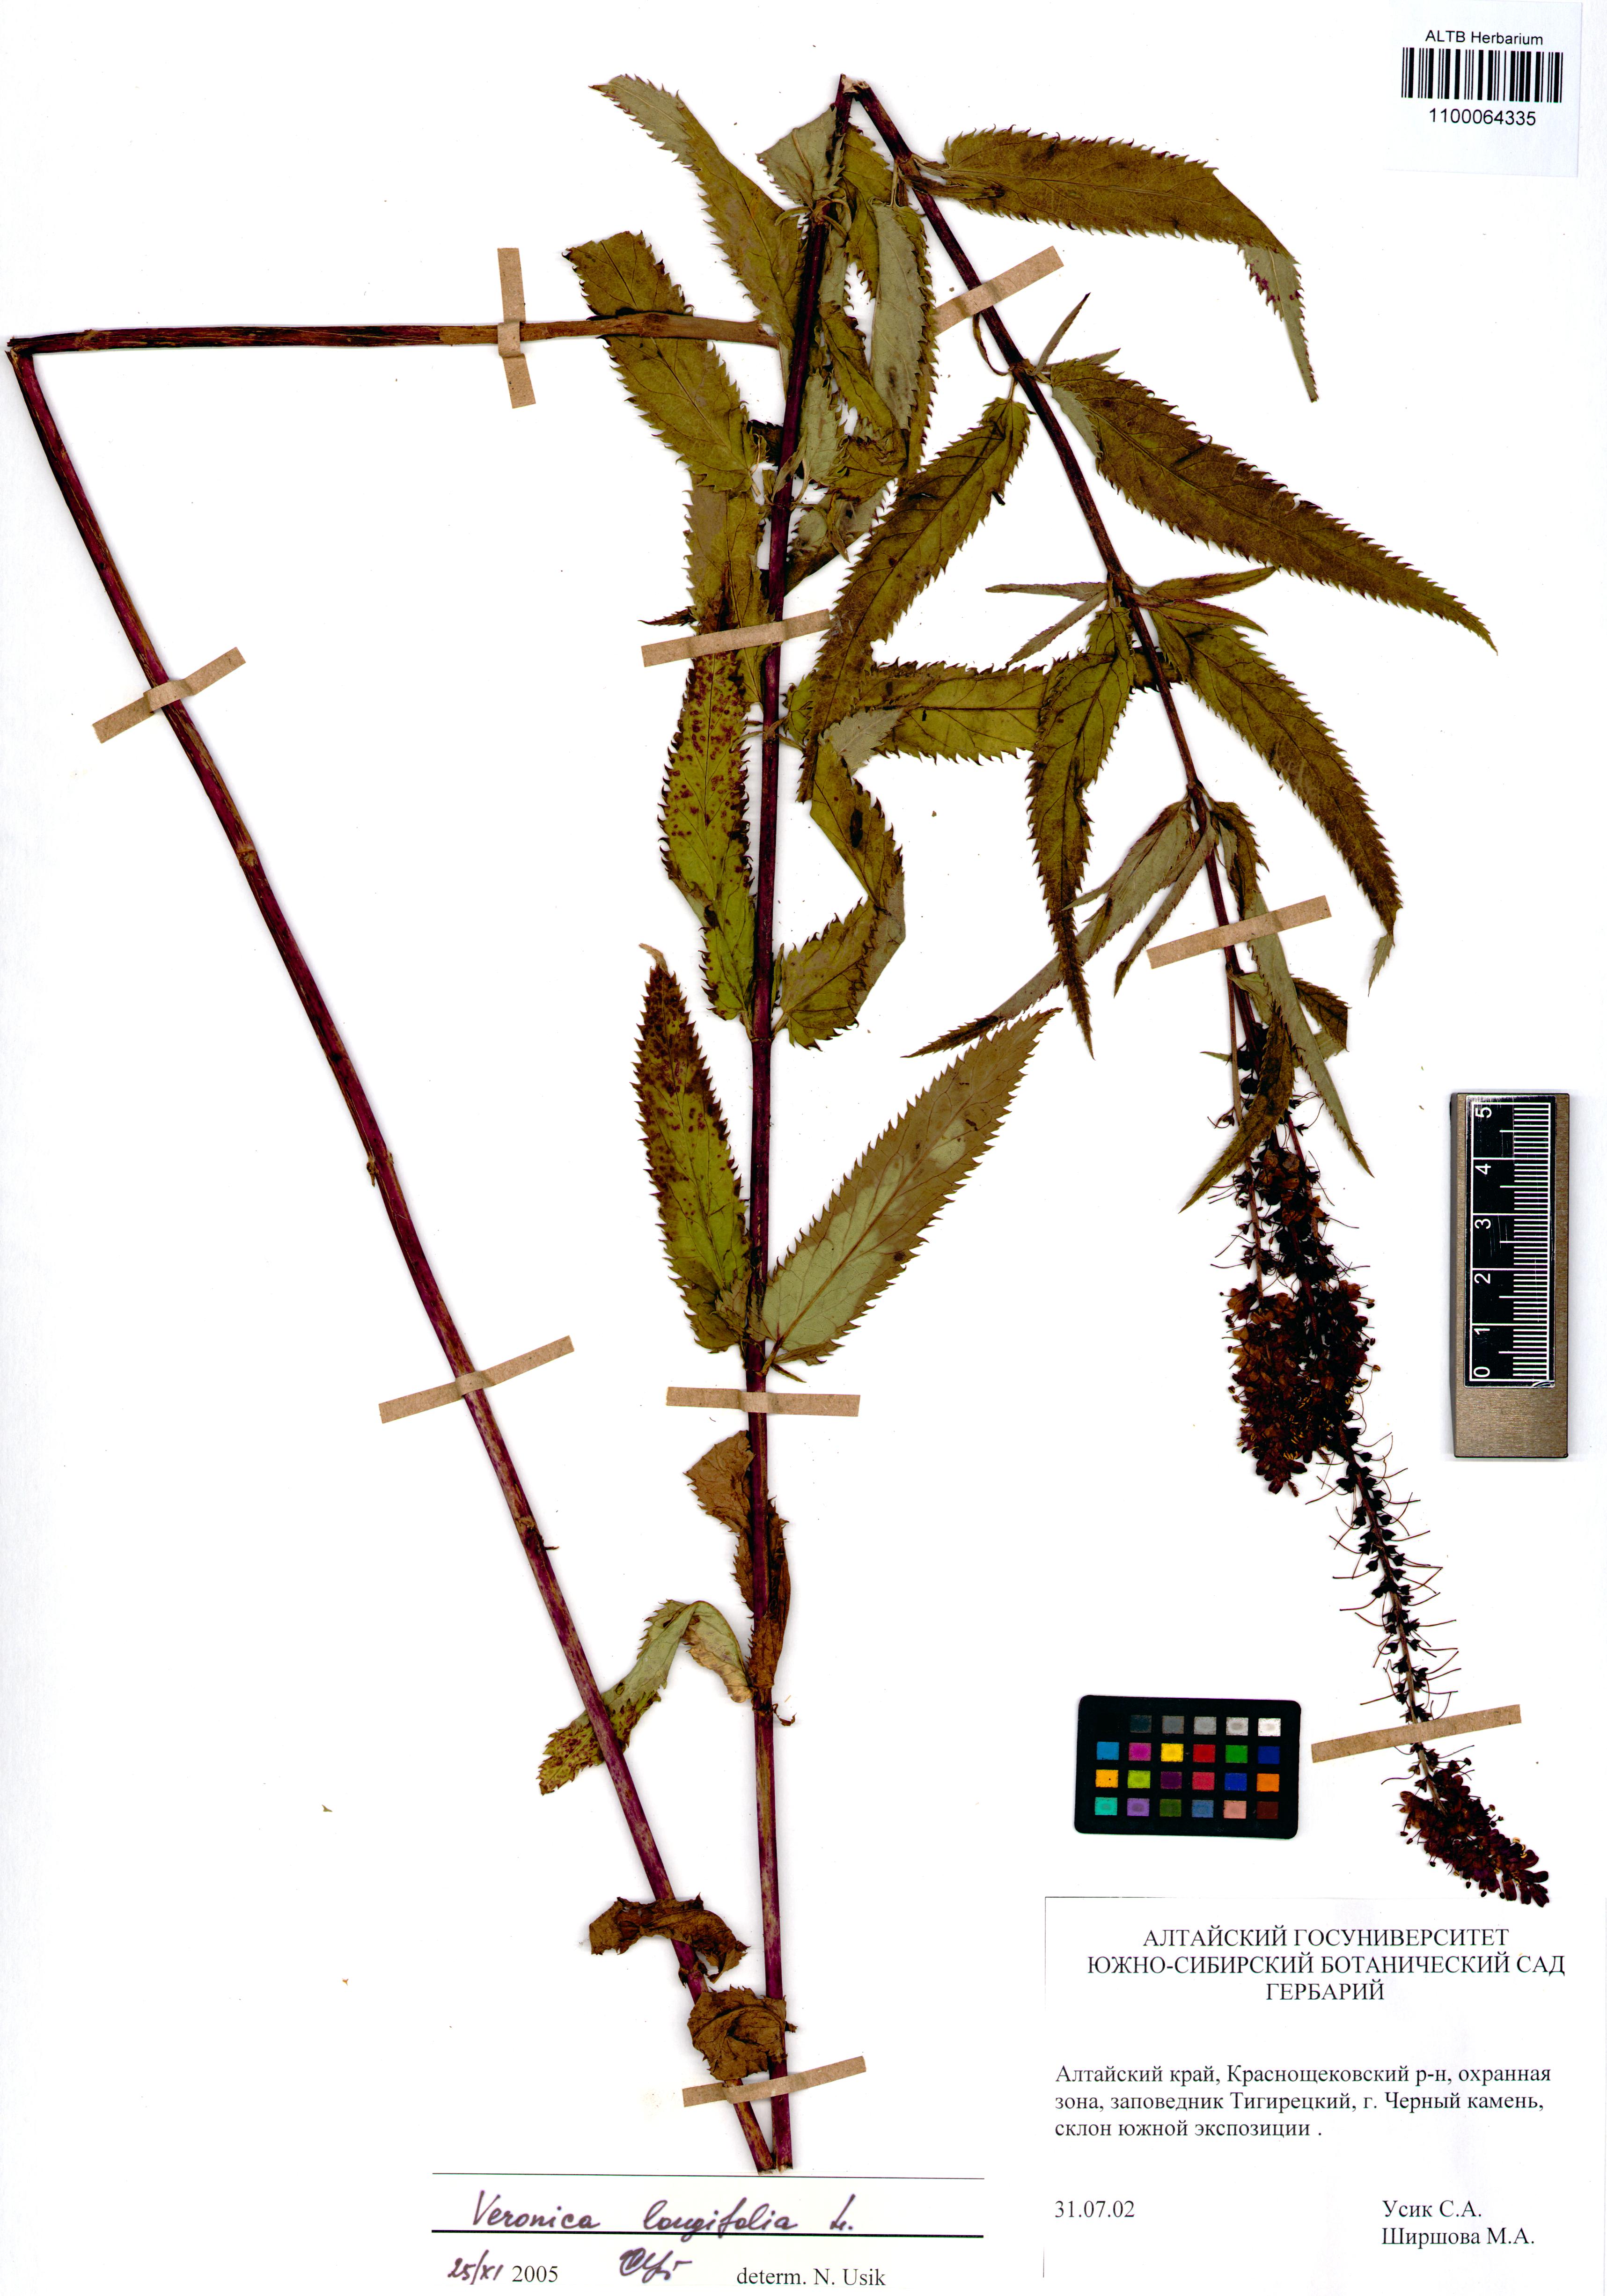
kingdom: Plantae
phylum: Tracheophyta
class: Magnoliopsida
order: Lamiales
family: Plantaginaceae
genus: Veronica
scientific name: Veronica longifolia
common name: Garden speedwell
